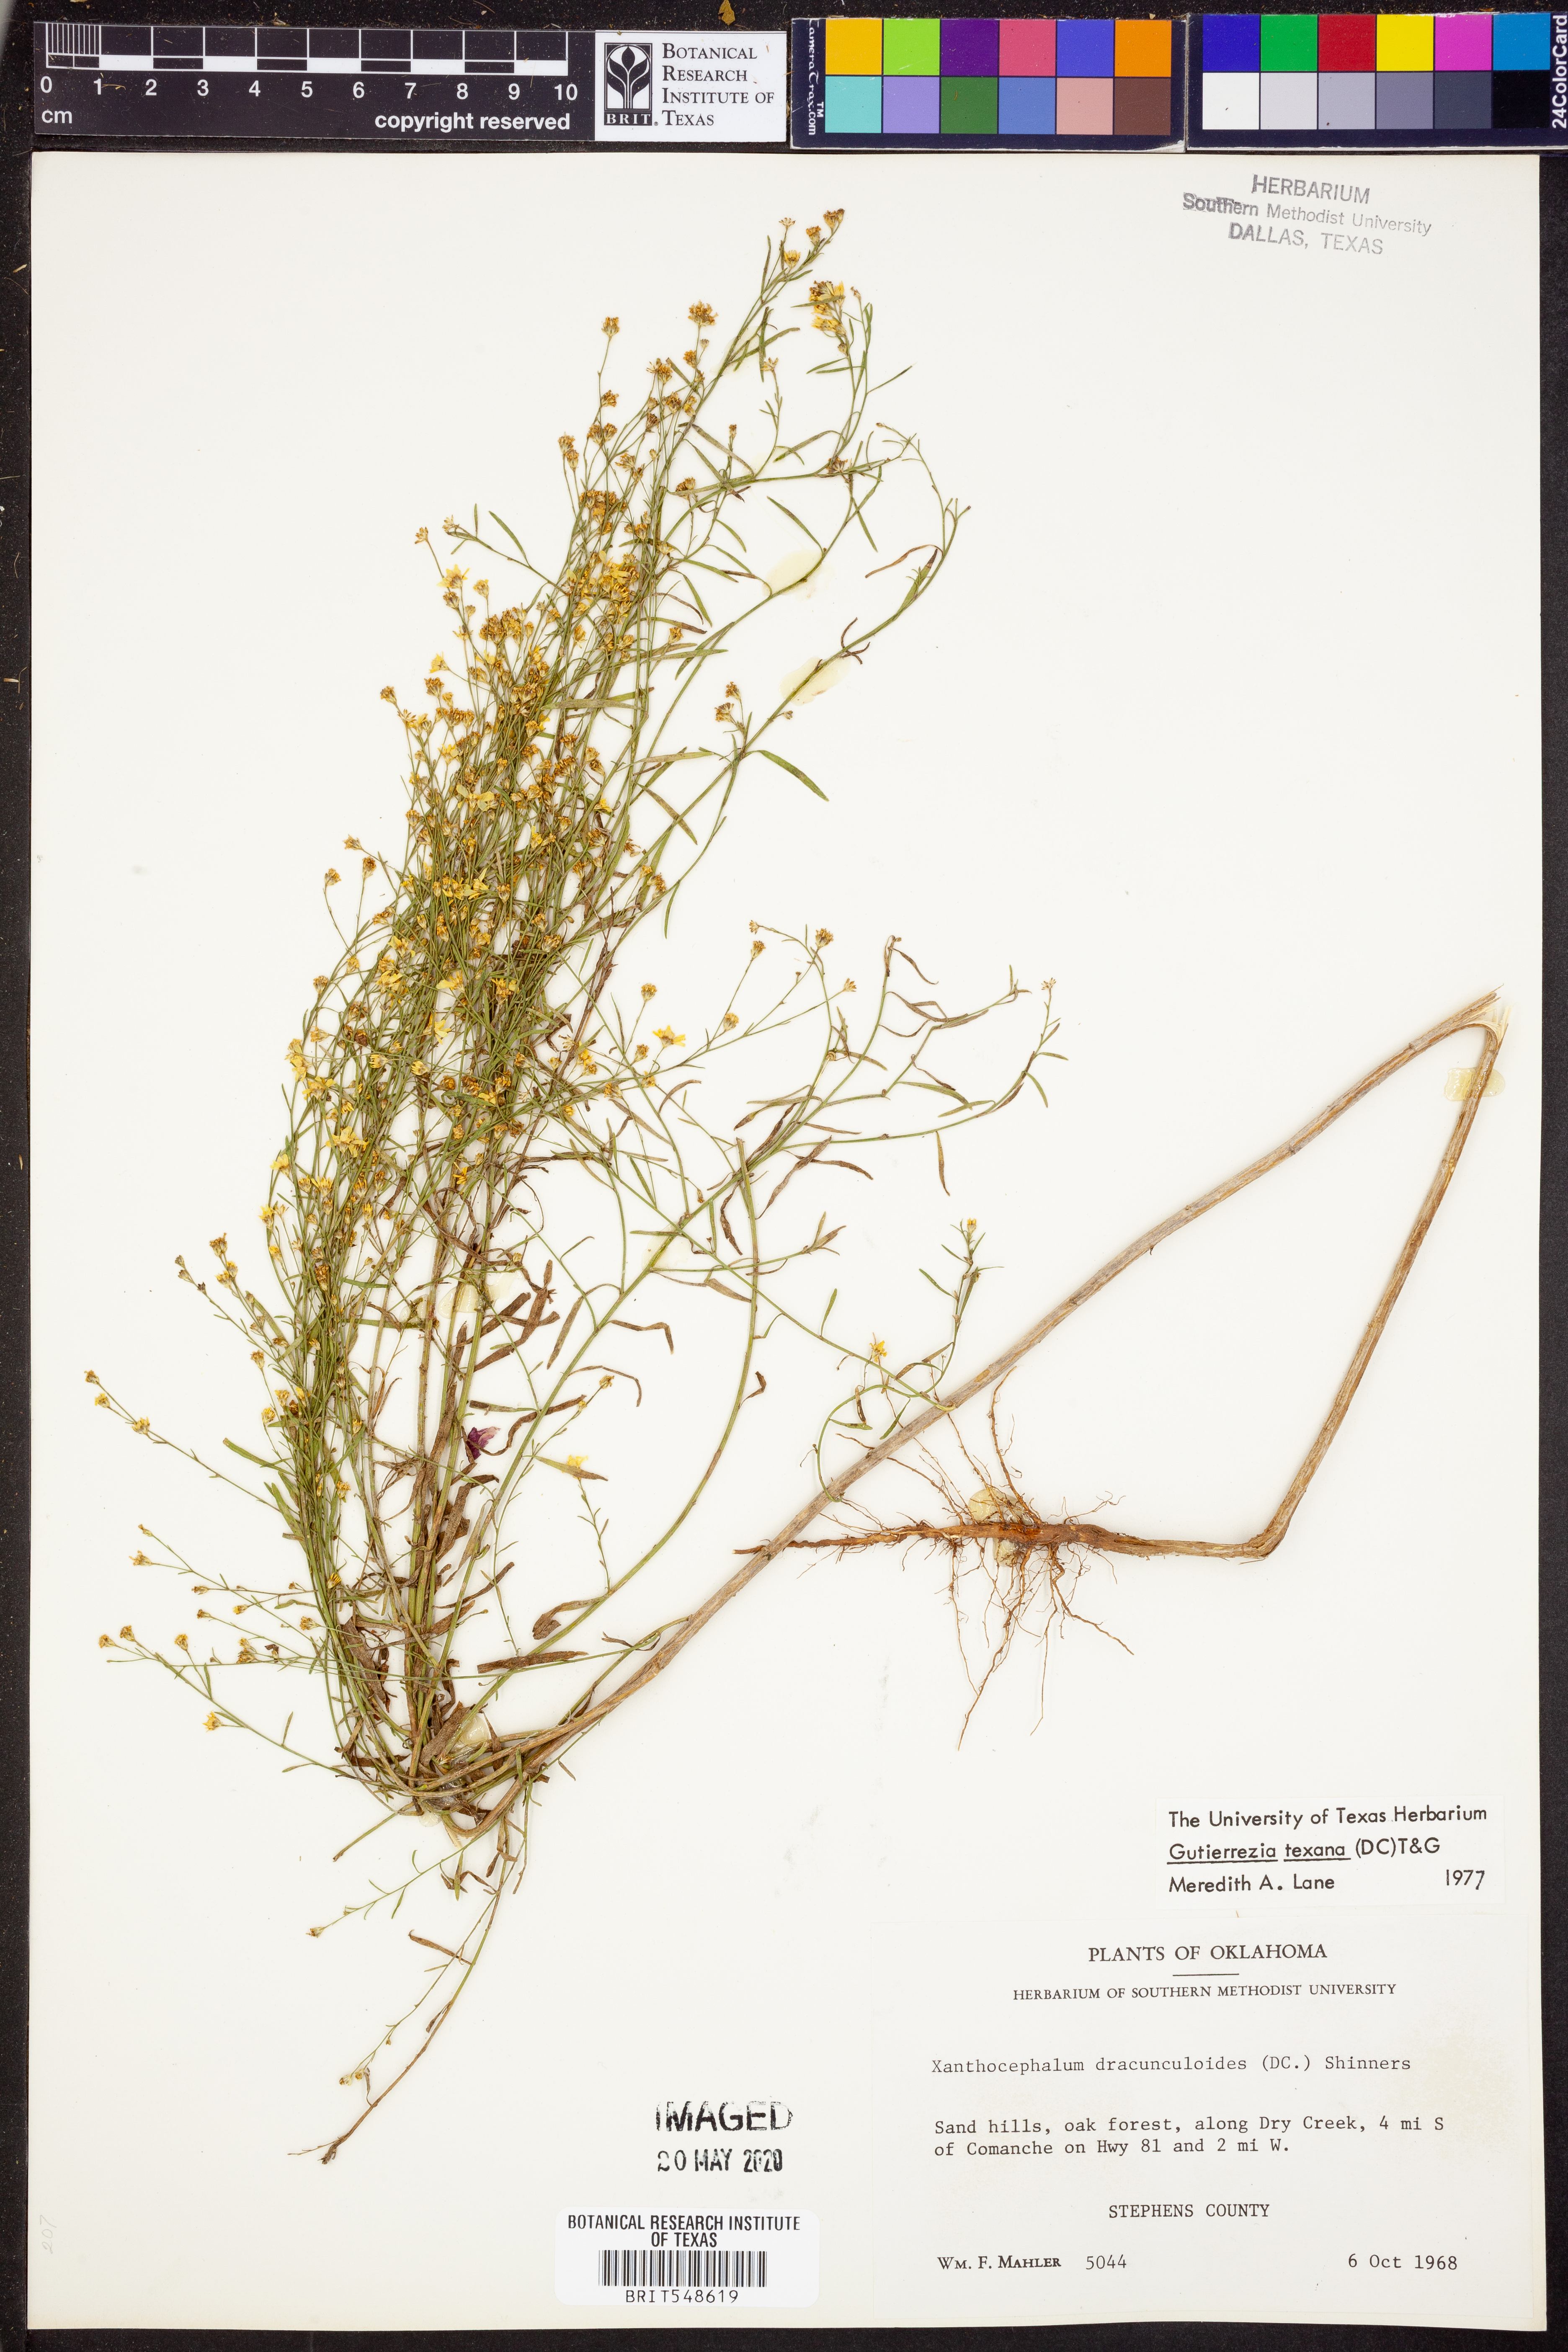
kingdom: Plantae
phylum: Tracheophyta
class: Magnoliopsida
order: Asterales
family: Asteraceae
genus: Gutierrezia
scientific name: Gutierrezia texana
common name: Texas snakeweed
